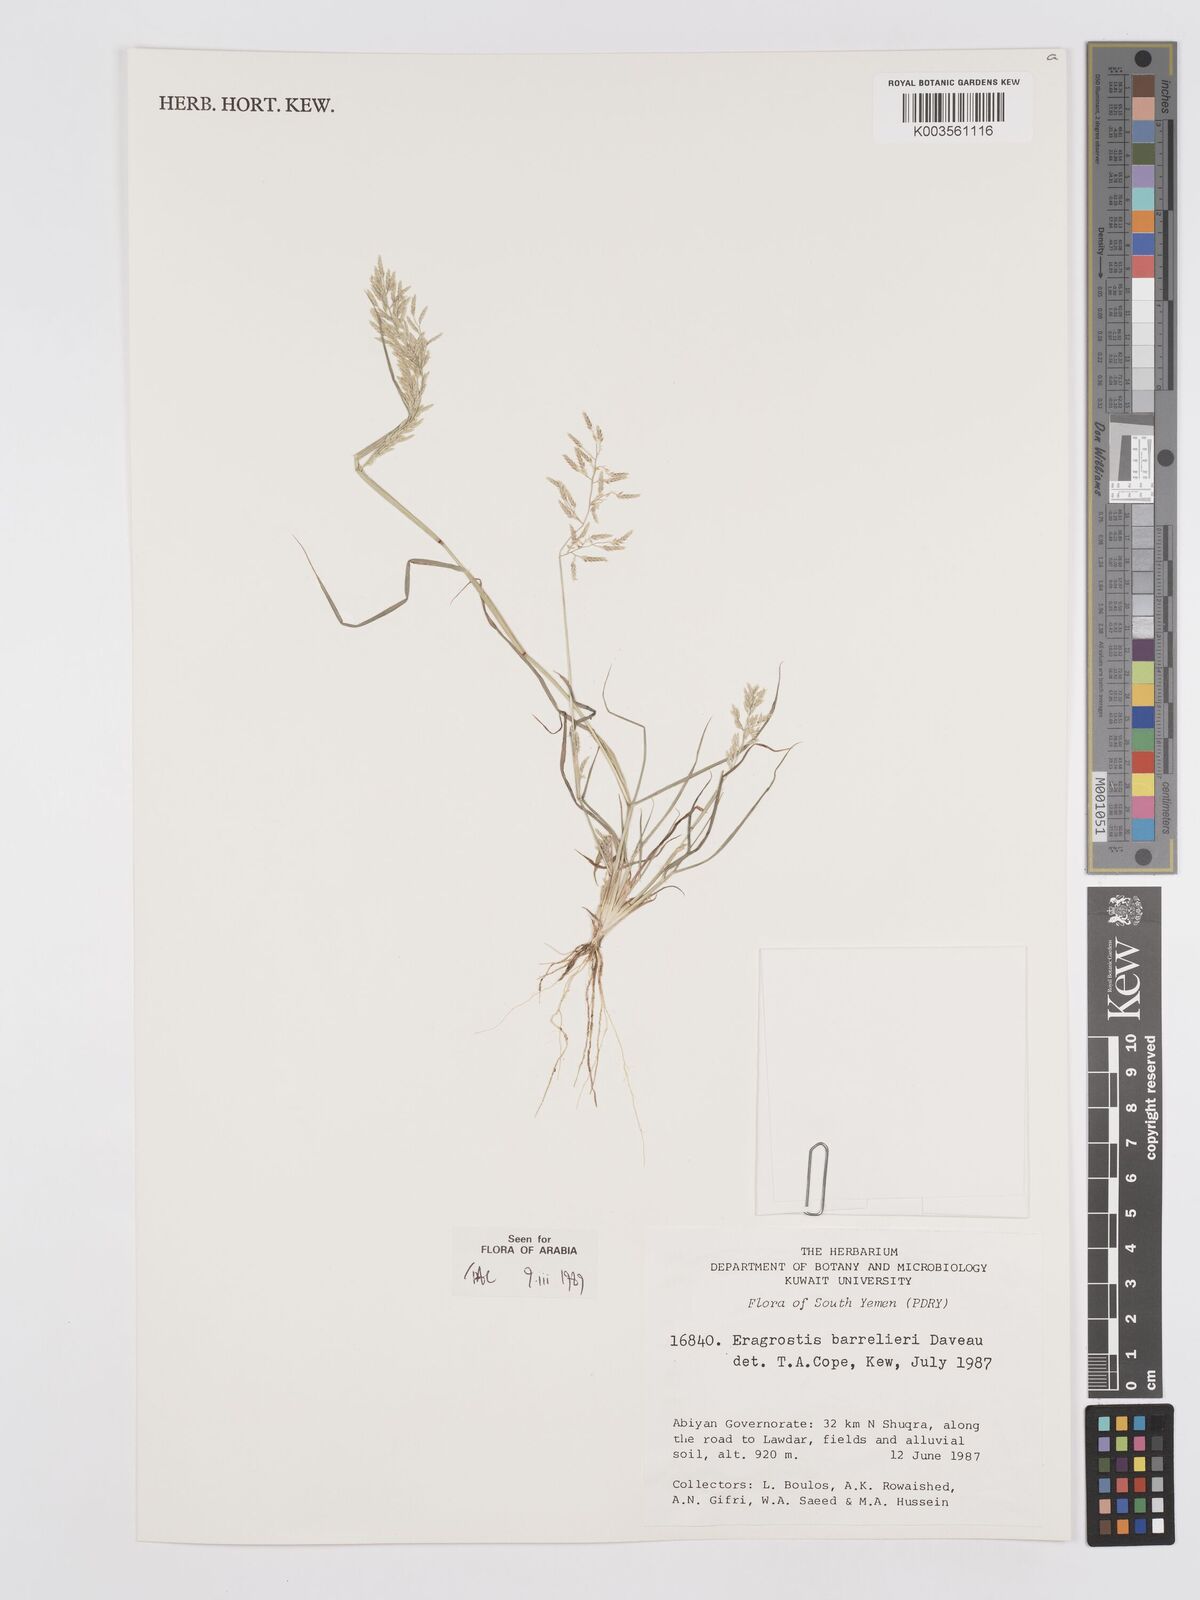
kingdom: Plantae
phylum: Tracheophyta
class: Liliopsida
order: Poales
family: Poaceae
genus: Eragrostis
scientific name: Eragrostis barrelieri
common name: Mediterranean lovegrass
